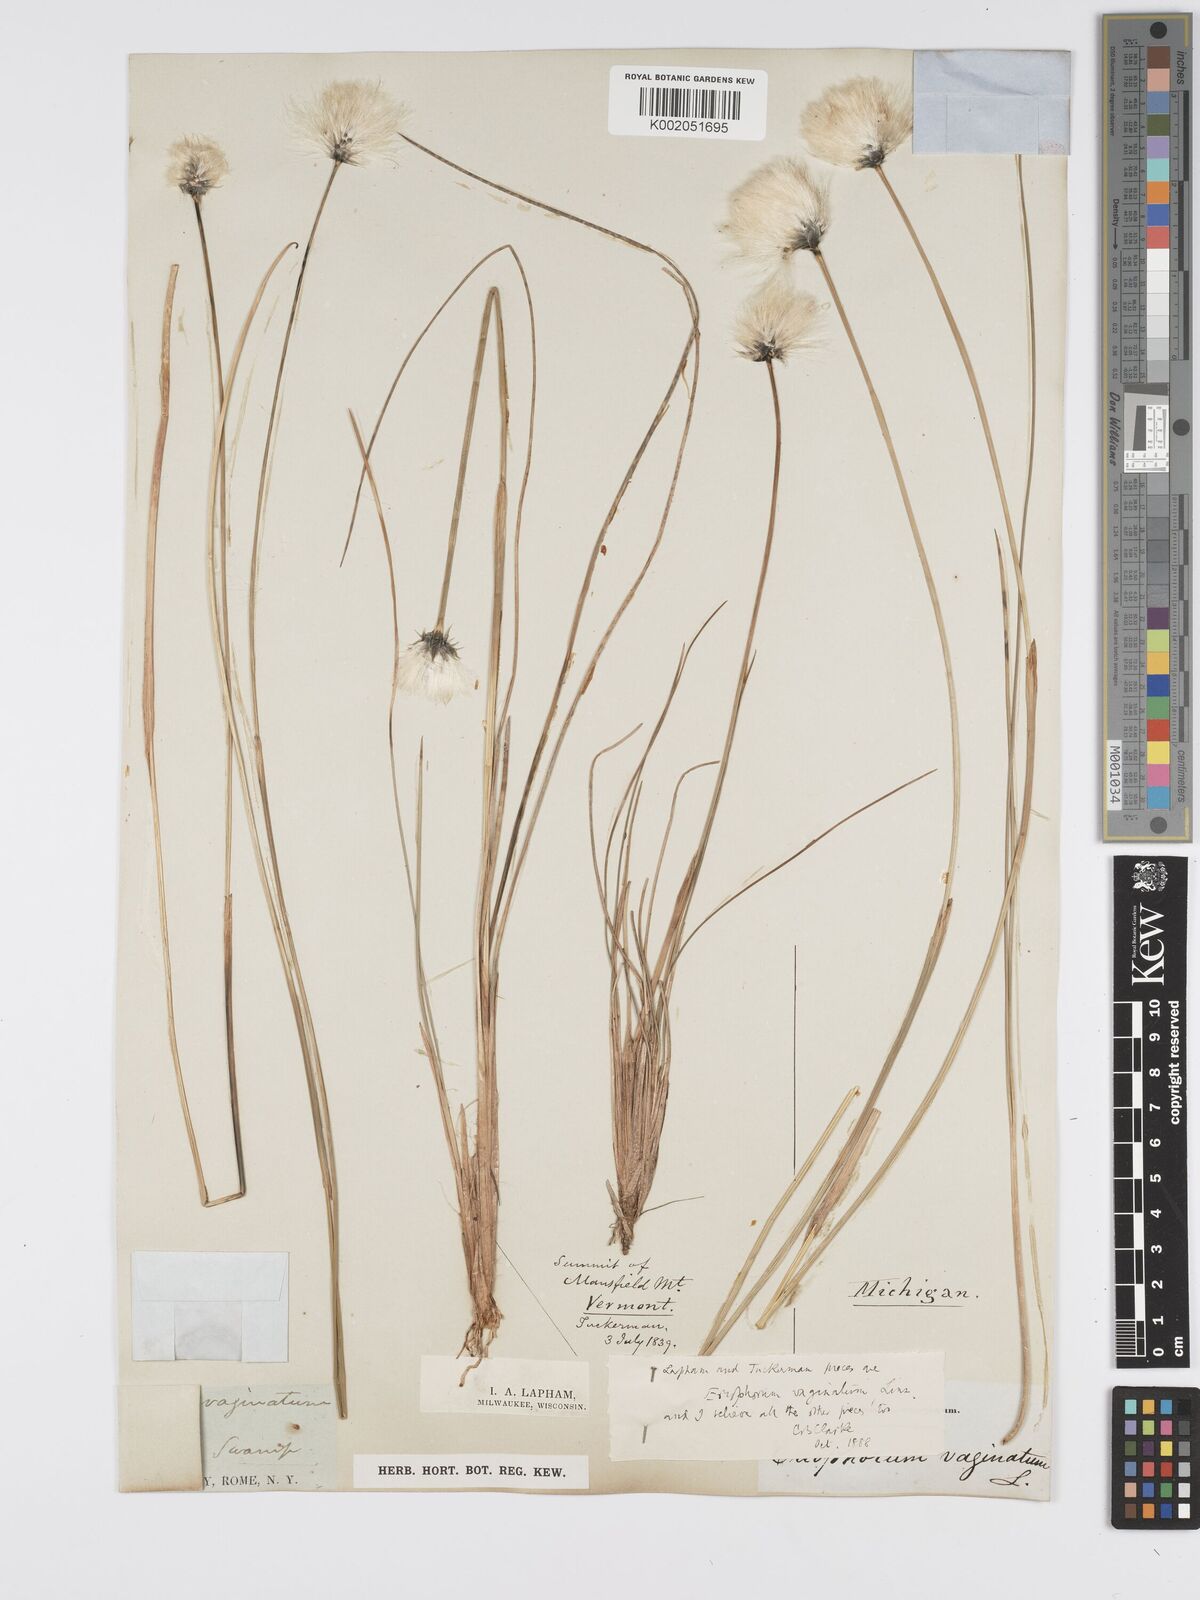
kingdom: Plantae
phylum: Tracheophyta
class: Liliopsida
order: Poales
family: Cyperaceae
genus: Eriophorum
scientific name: Eriophorum vaginatum
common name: Hare's-tail cottongrass
